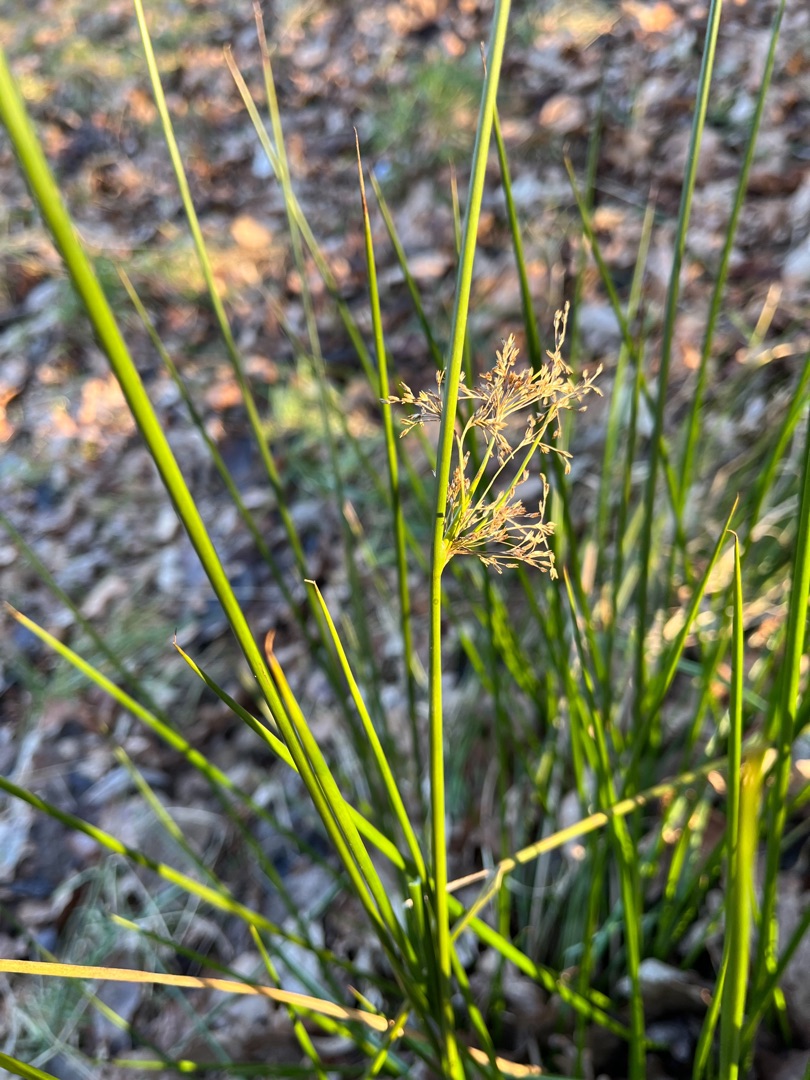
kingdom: Plantae
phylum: Tracheophyta
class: Liliopsida
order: Poales
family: Juncaceae
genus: Juncus
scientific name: Juncus effusus
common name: Lyse-siv
